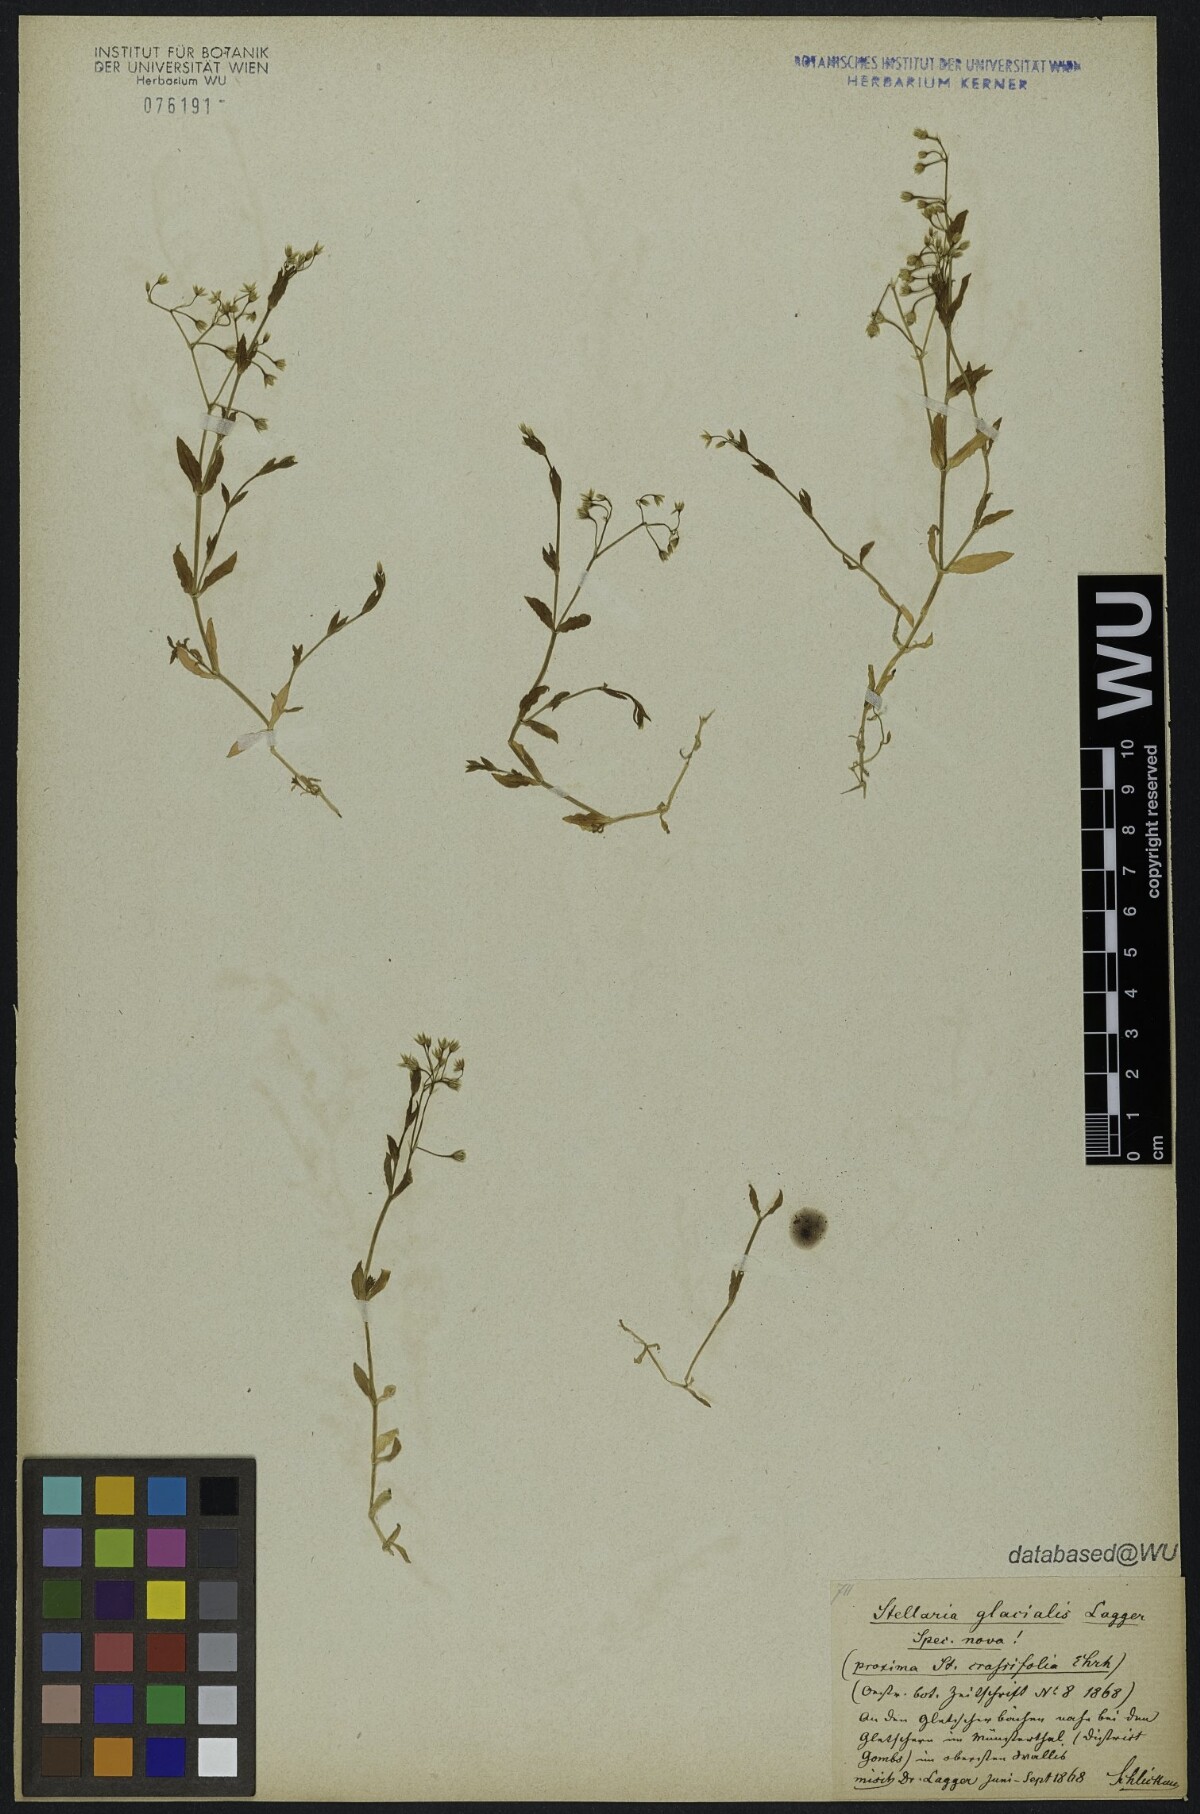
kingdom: Plantae
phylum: Tracheophyta
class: Magnoliopsida
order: Caryophyllales
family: Caryophyllaceae
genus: Stellaria
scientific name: Stellaria alsine
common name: Bog stitchwort
